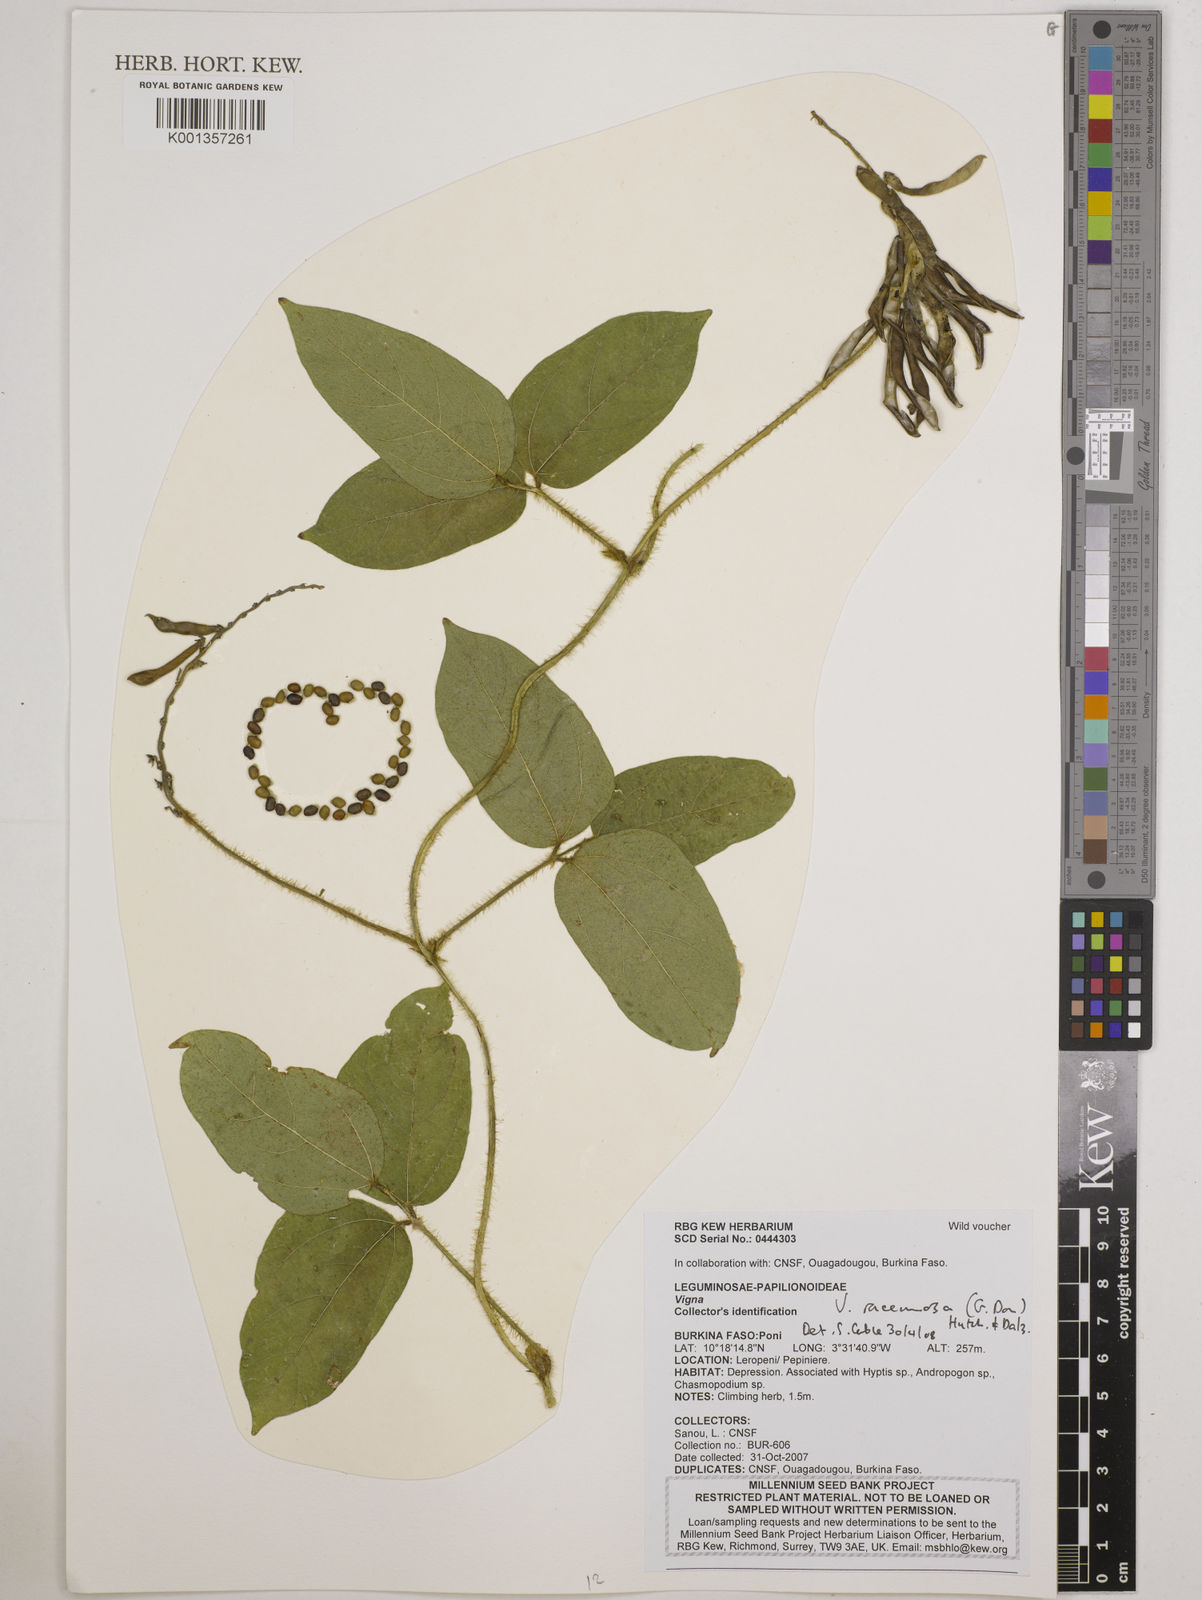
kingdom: Plantae
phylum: Tracheophyta
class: Magnoliopsida
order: Fabales
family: Fabaceae
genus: Vigna
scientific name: Vigna racemosa
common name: Beans not eaten
